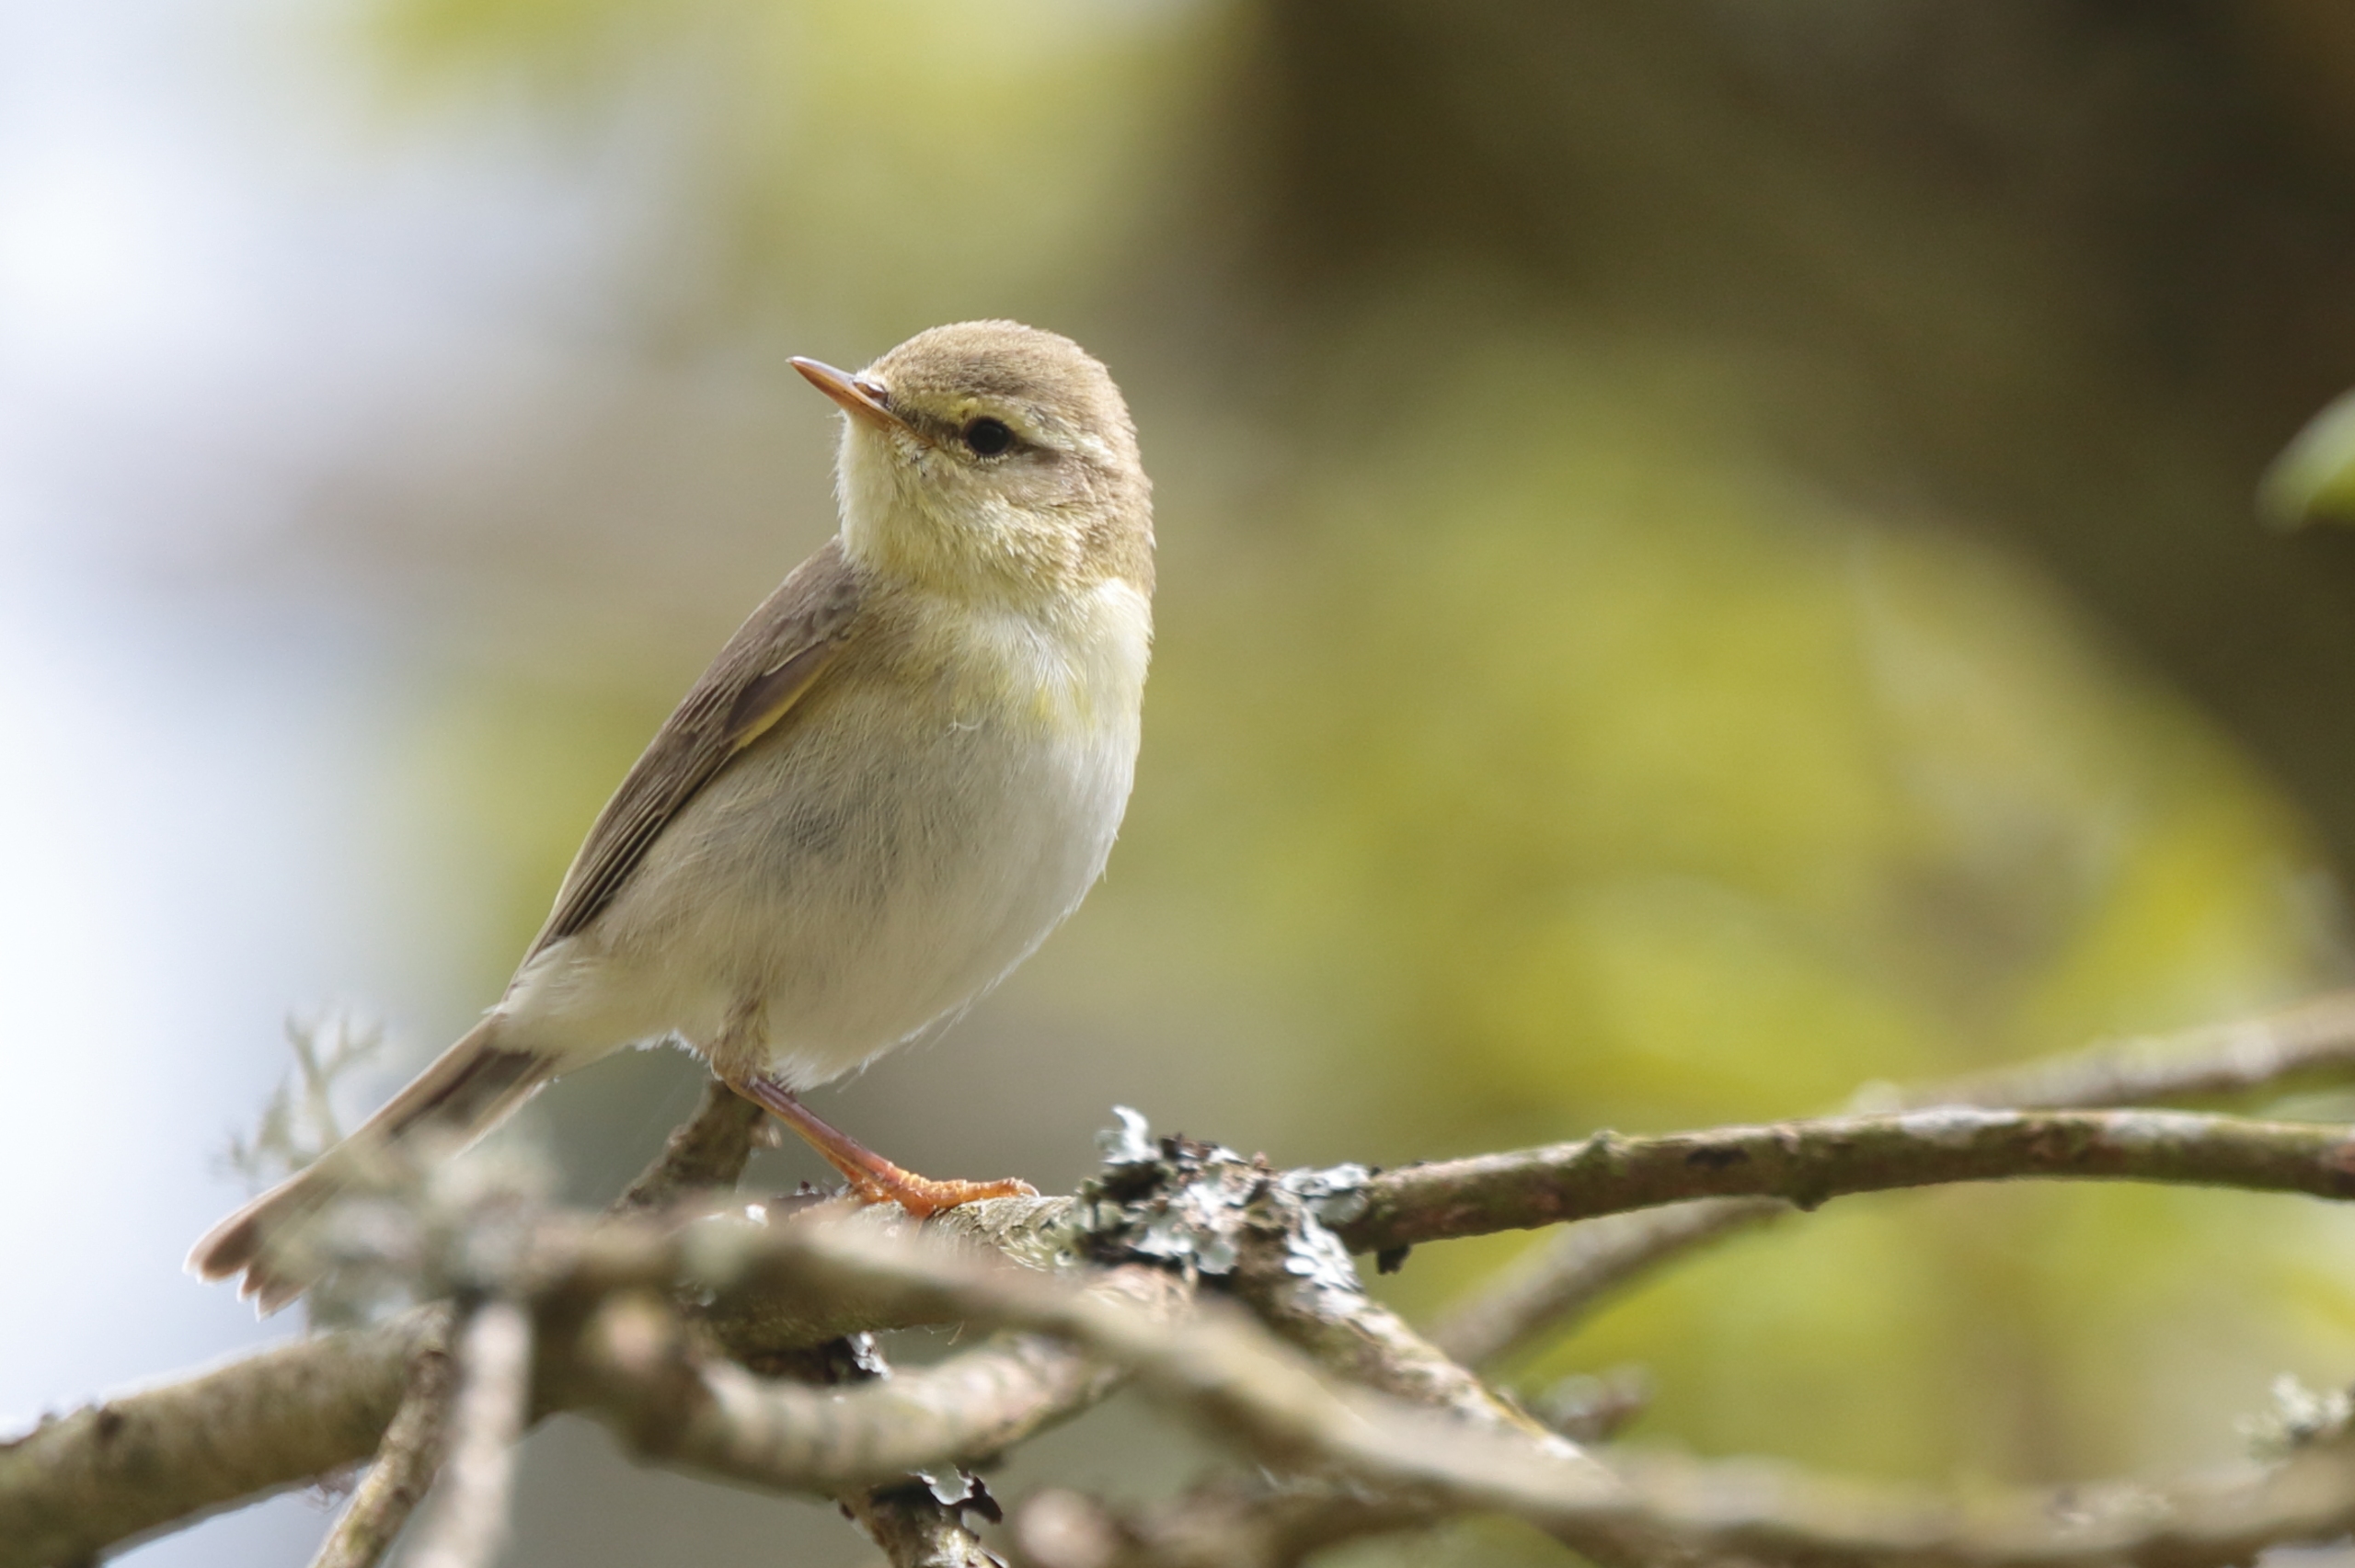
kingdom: Animalia
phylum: Chordata
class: Aves
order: Passeriformes
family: Phylloscopidae
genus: Phylloscopus
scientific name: Phylloscopus trochilus
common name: Løvsanger
